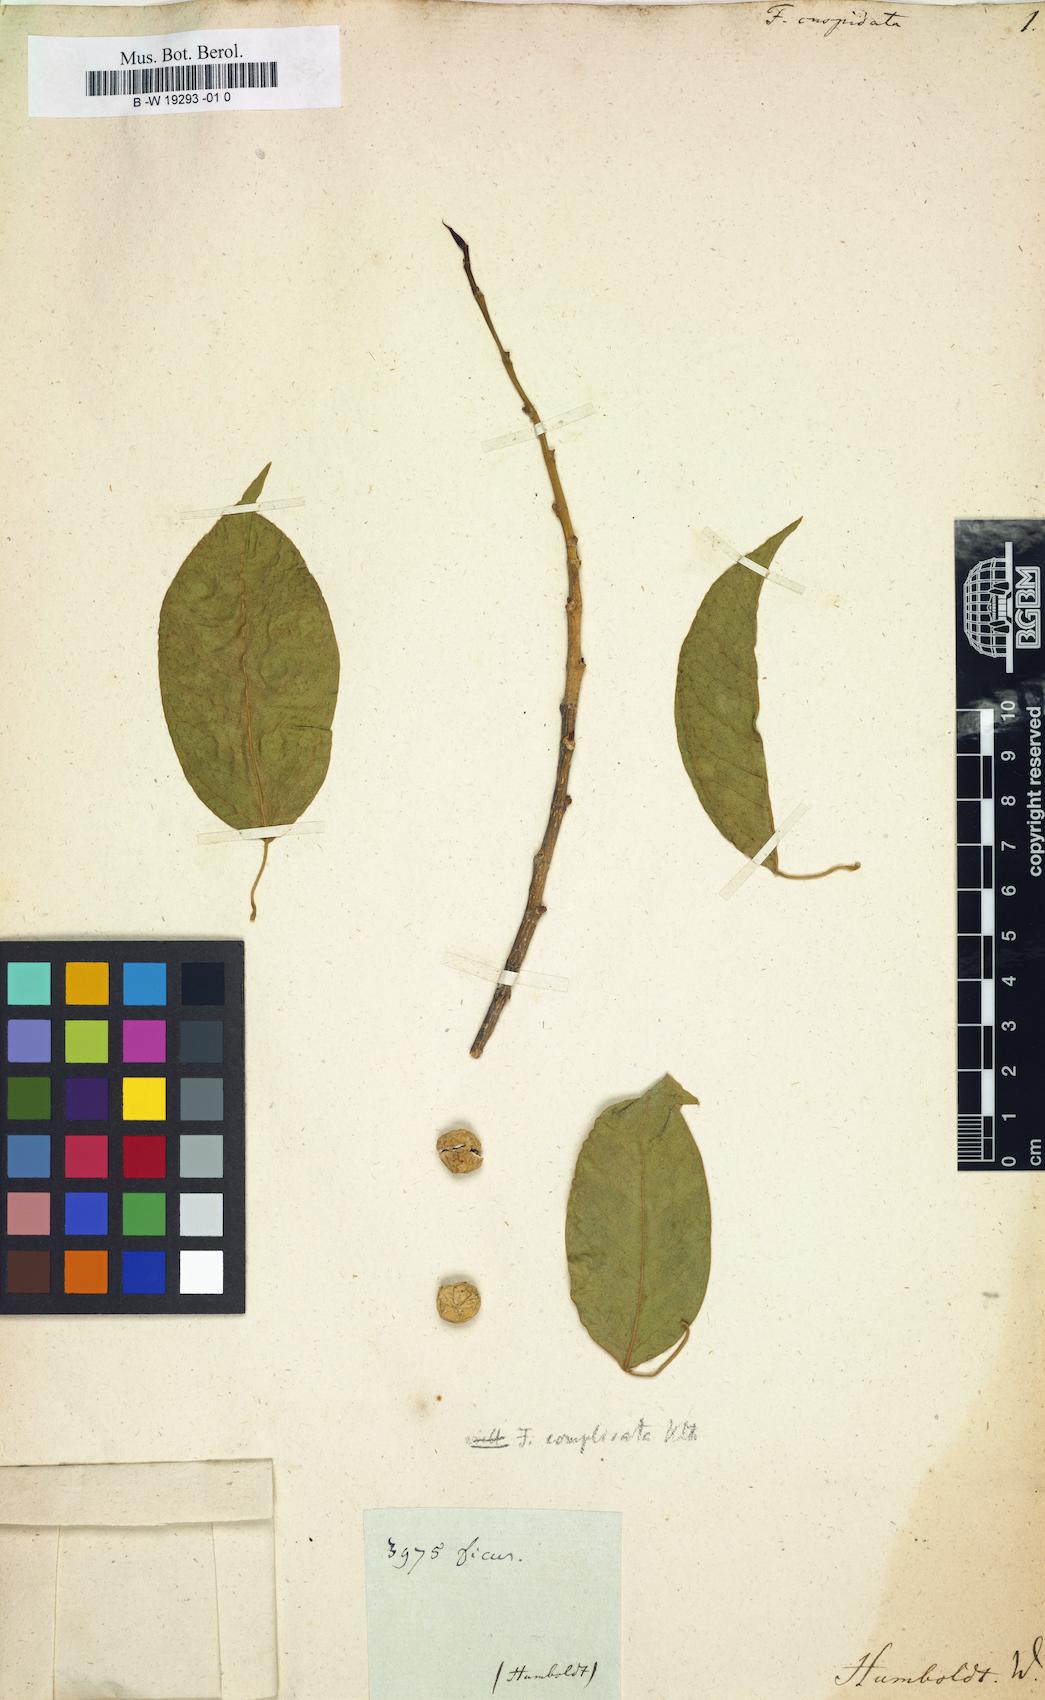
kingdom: Plantae
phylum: Tracheophyta
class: Magnoliopsida
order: Rosales
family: Moraceae
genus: Ficus
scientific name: Ficus cuspidata
